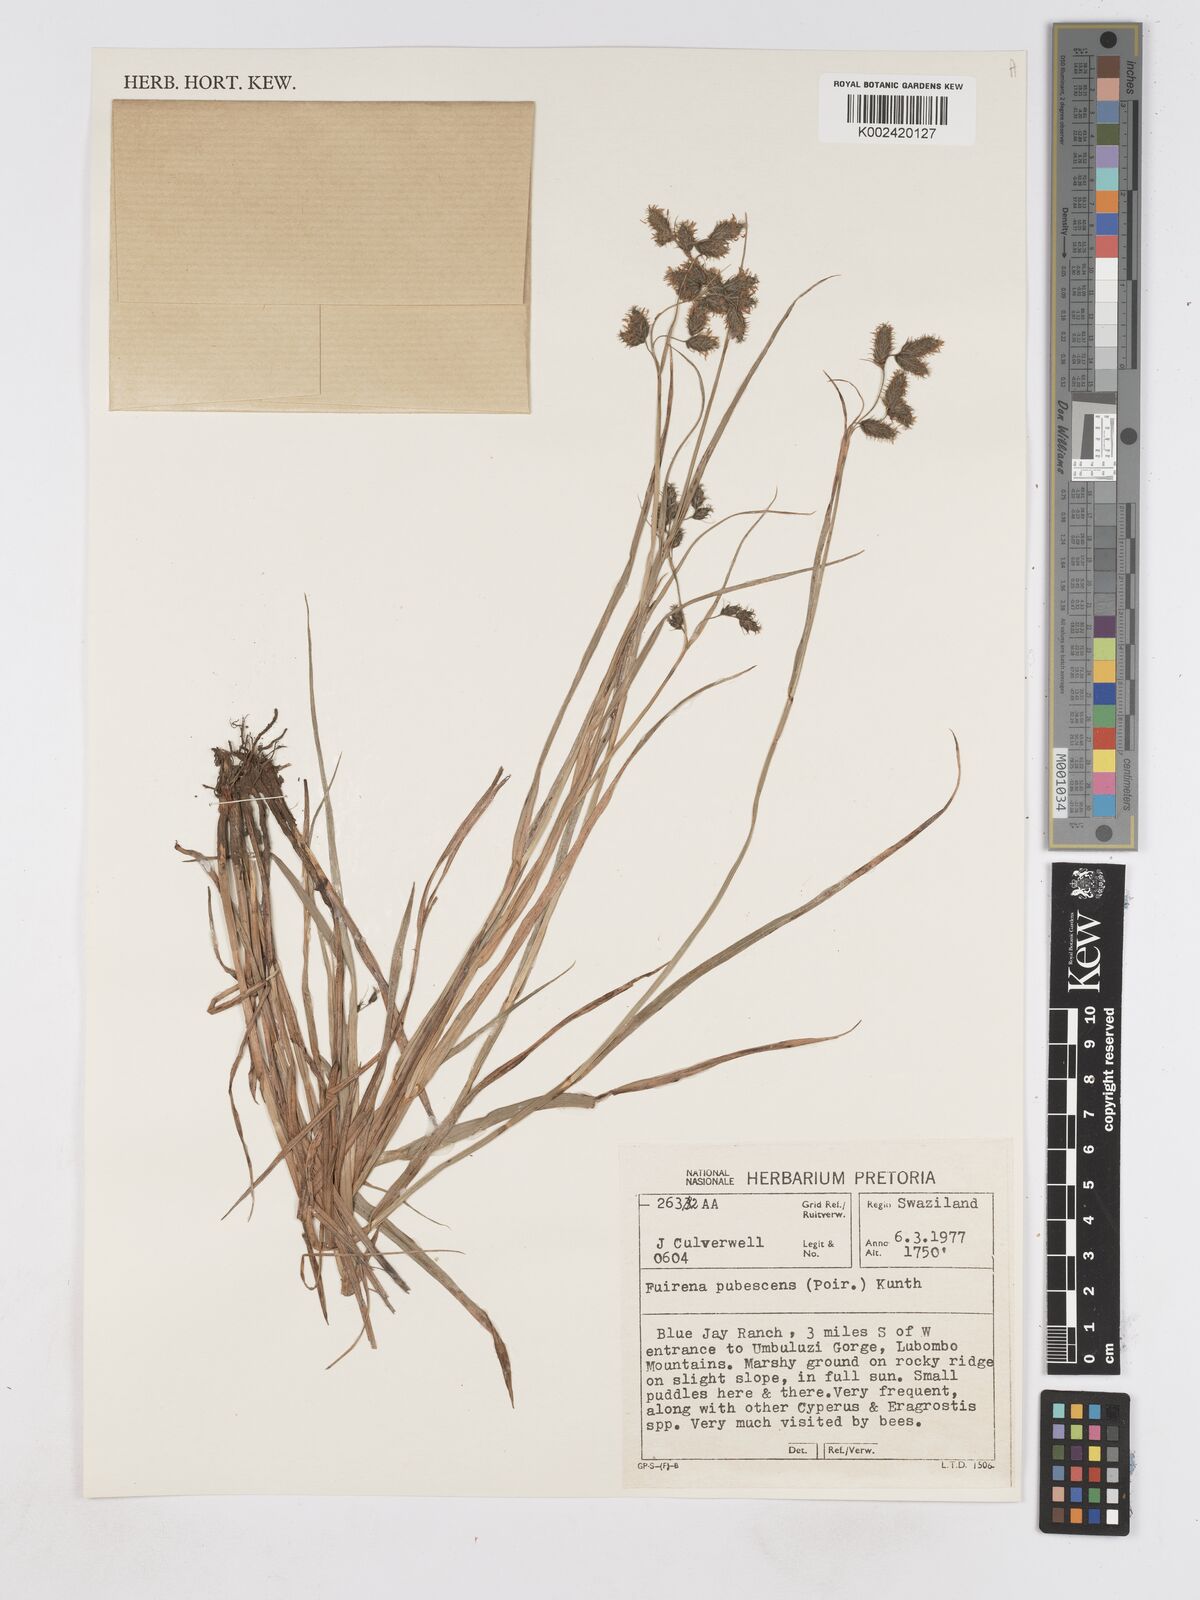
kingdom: Plantae
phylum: Tracheophyta
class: Liliopsida
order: Poales
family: Cyperaceae
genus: Fuirena
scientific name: Fuirena pubescens
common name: Hairy sedge
